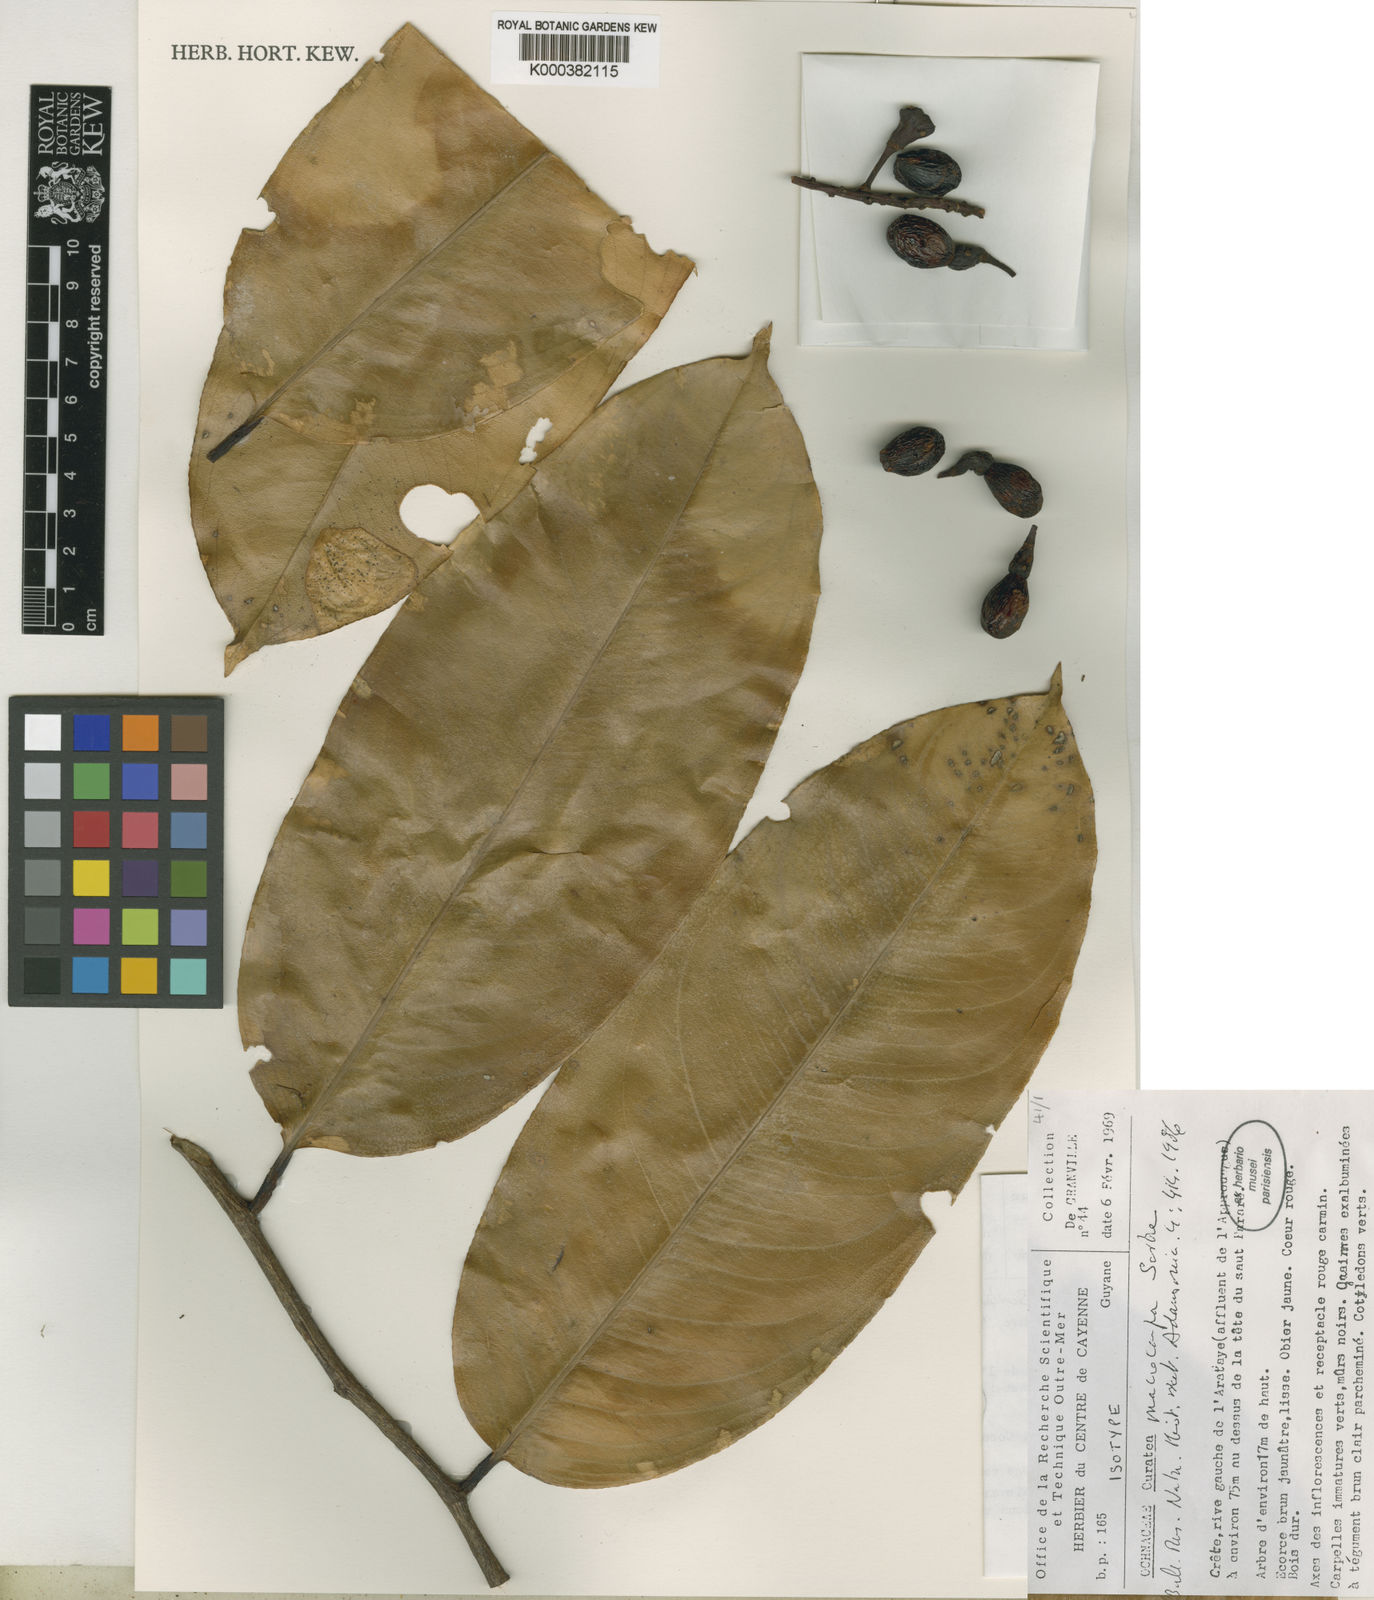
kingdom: Plantae
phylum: Tracheophyta
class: Magnoliopsida
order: Malpighiales
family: Ochnaceae
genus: Ouratea
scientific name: Ouratea macrocarpa
